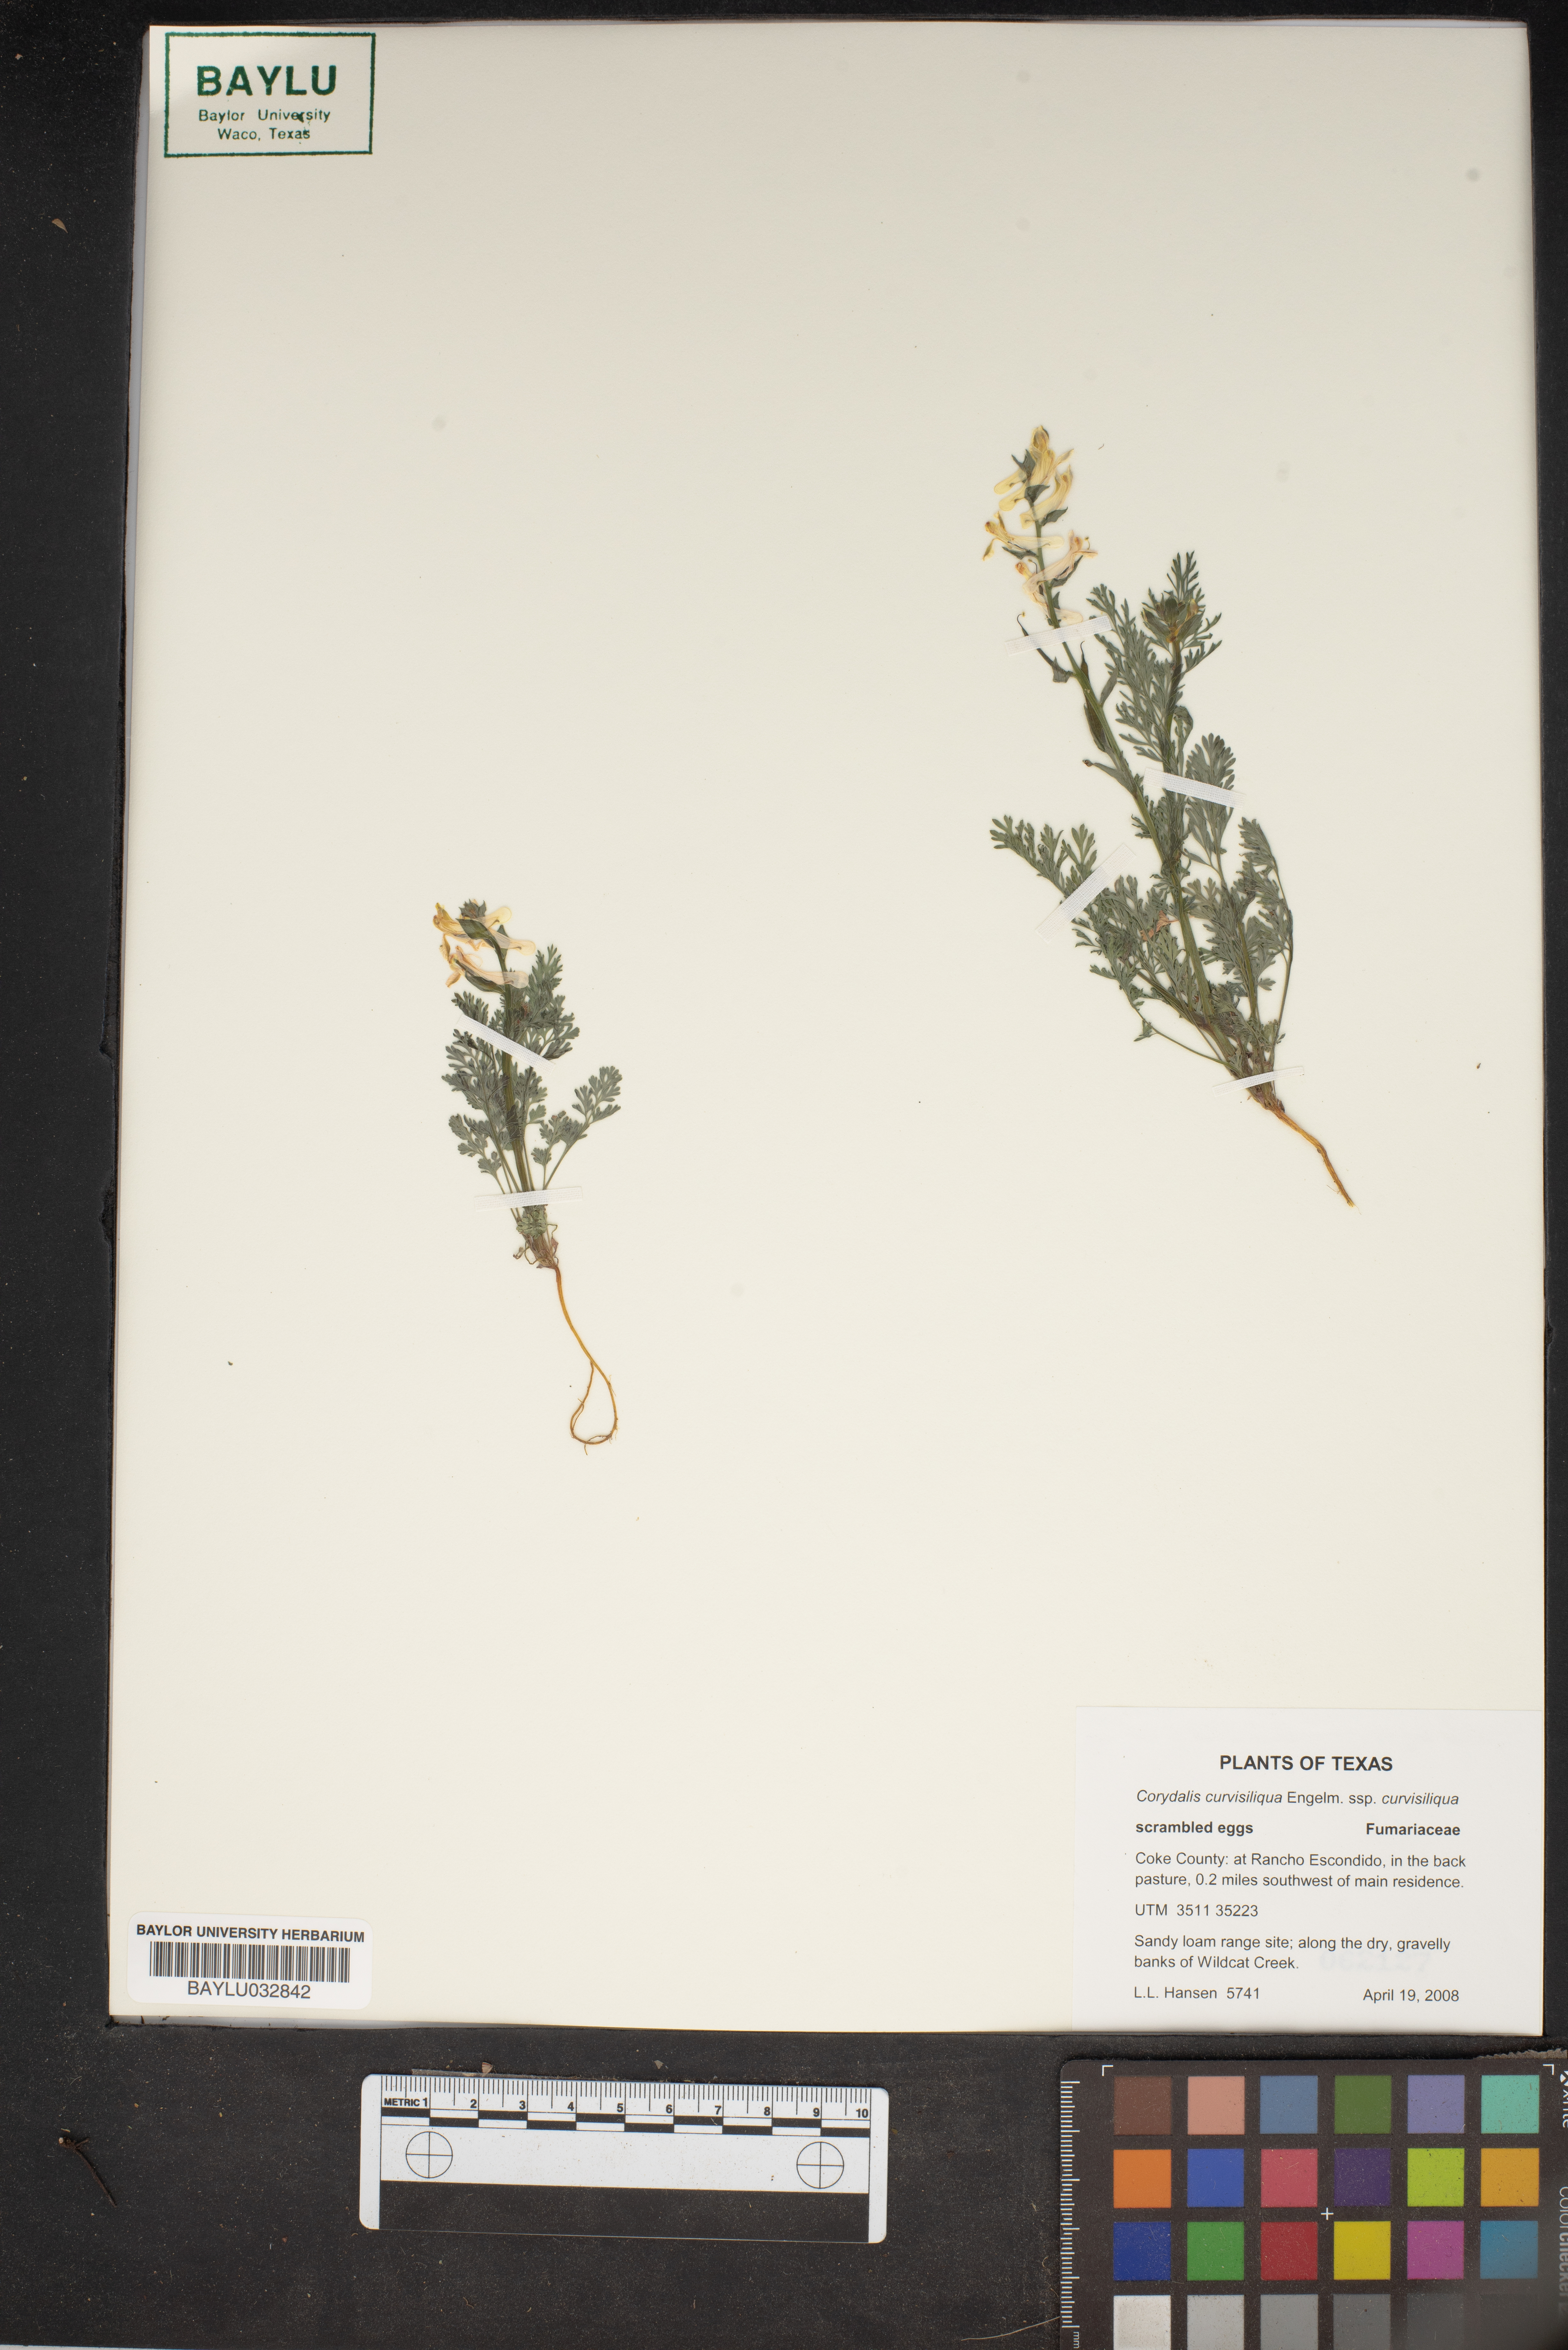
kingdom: Plantae
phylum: Tracheophyta
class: Magnoliopsida
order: Ranunculales
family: Papaveraceae
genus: Corydalis
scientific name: Corydalis curvisiliqua
